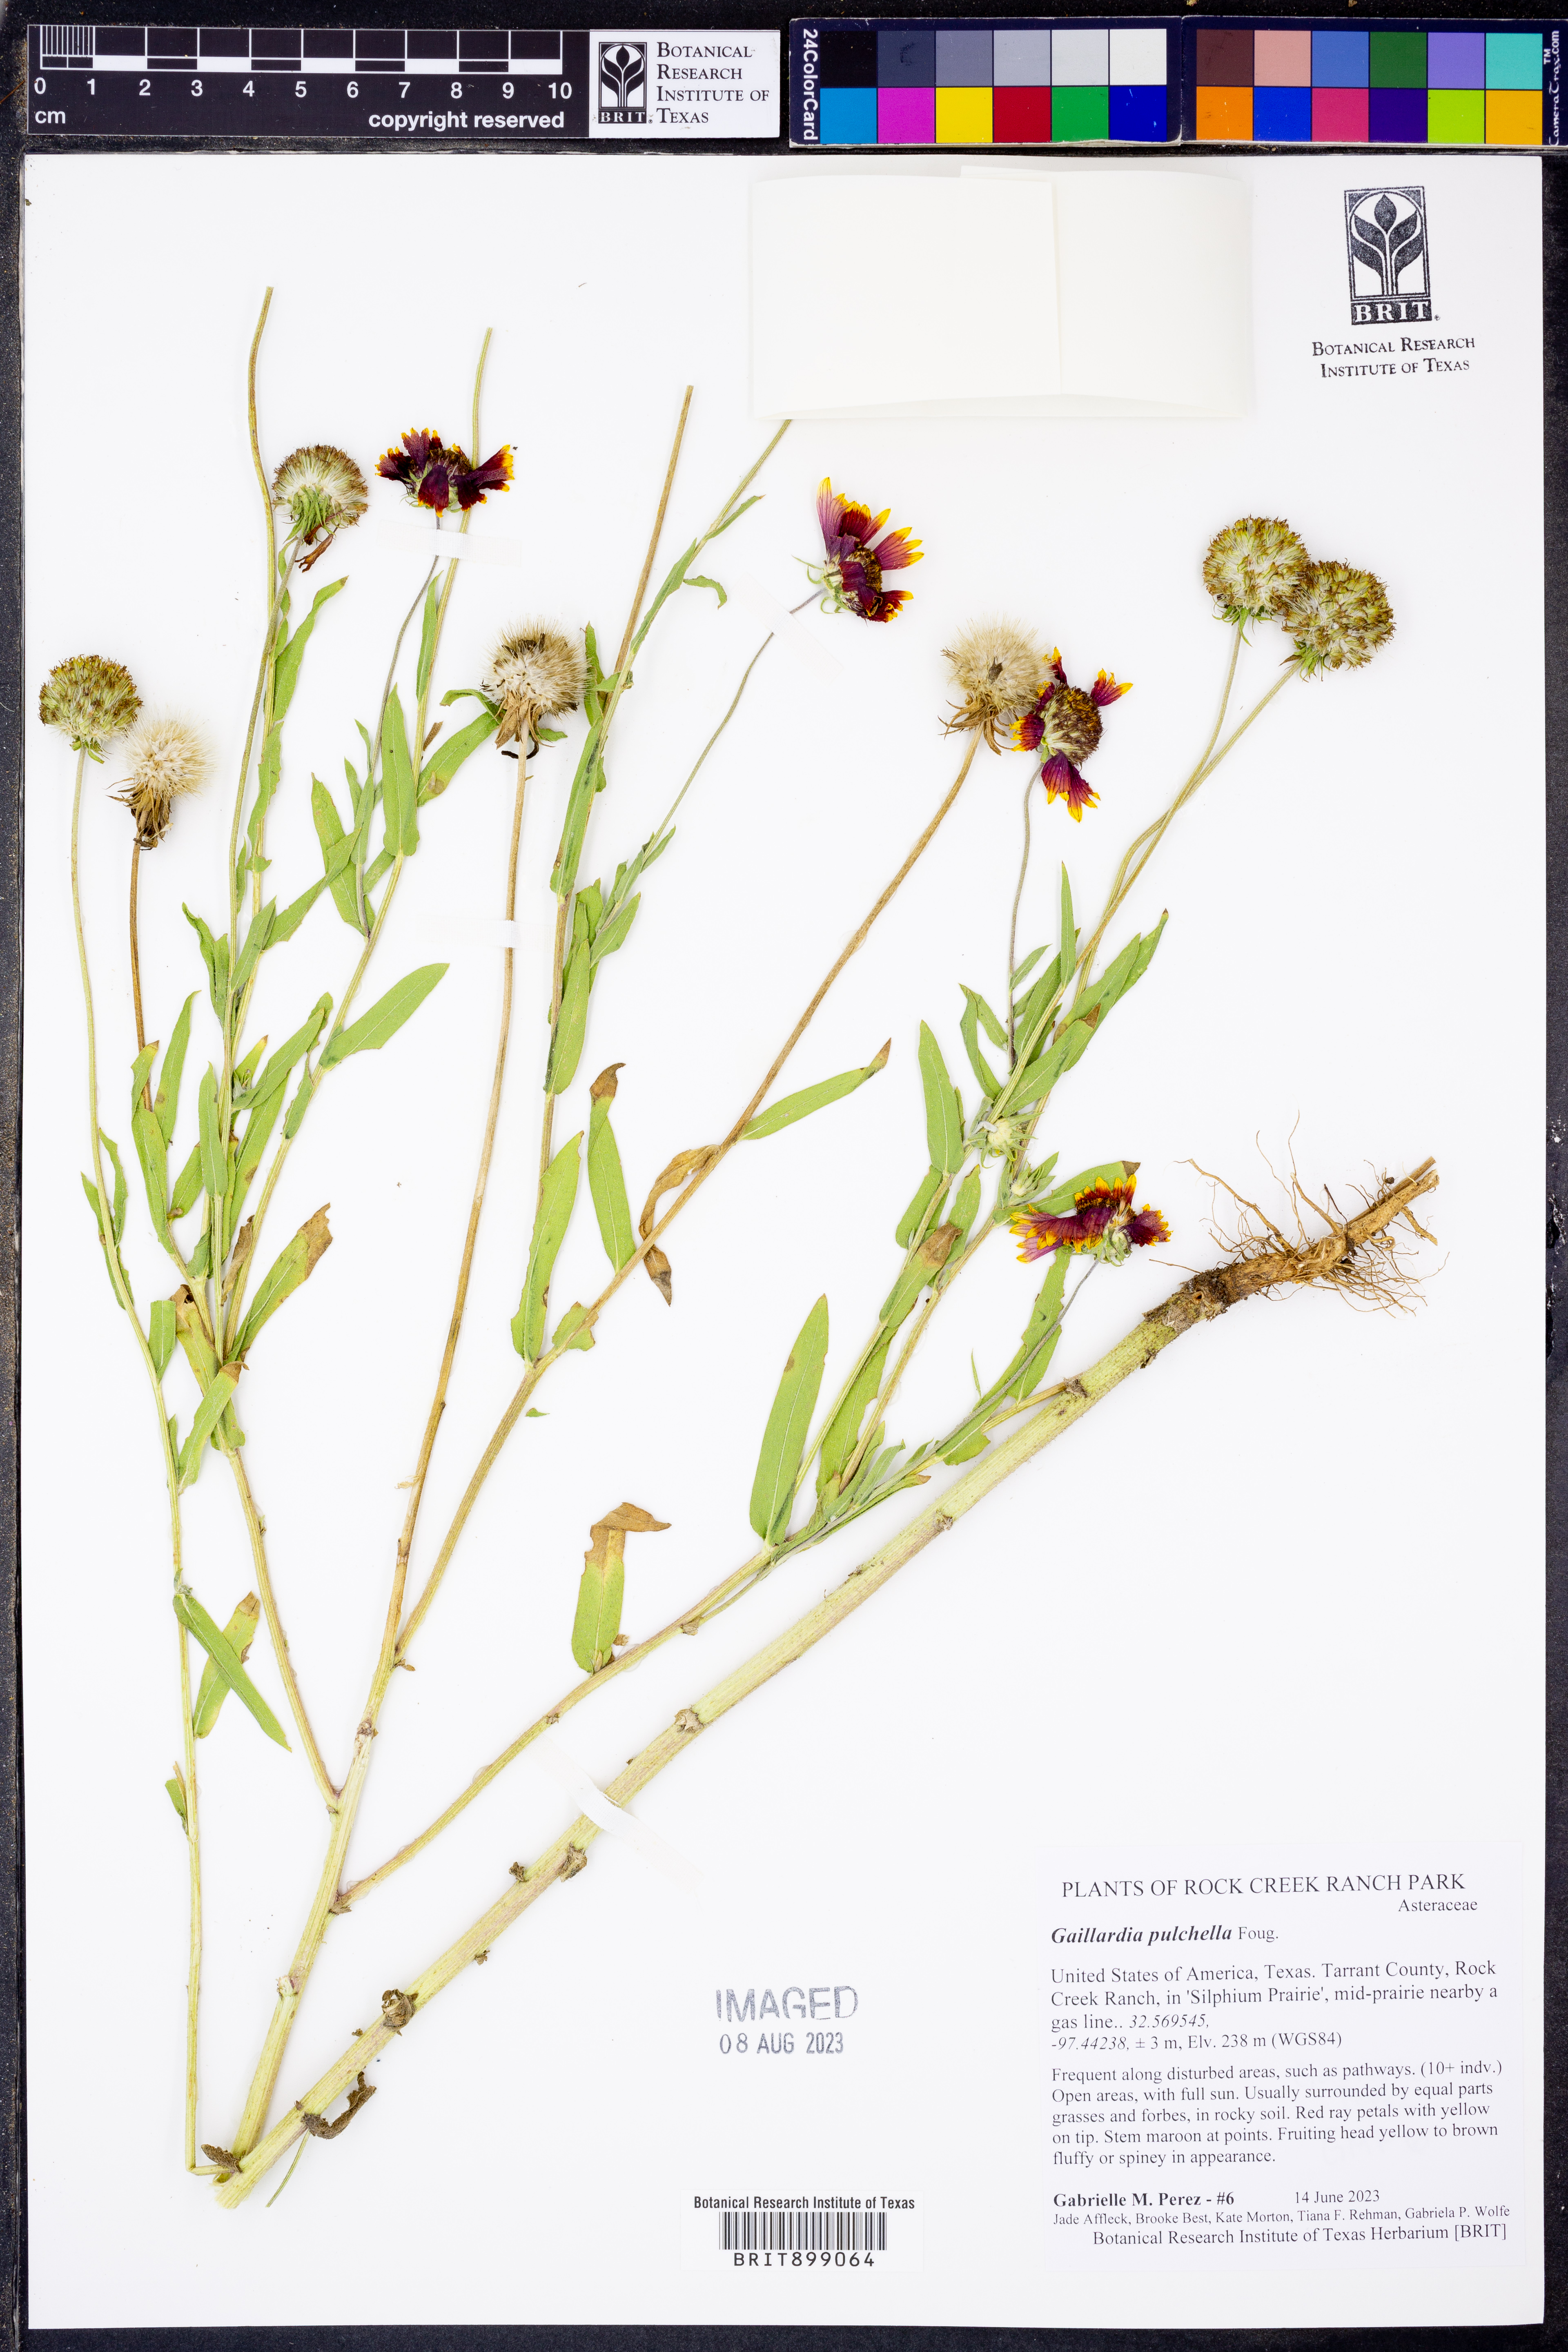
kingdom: Plantae
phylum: Tracheophyta
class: Magnoliopsida
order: Asterales
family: Asteraceae
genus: Gaillardia
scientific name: Gaillardia pulchella
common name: Firewheel
